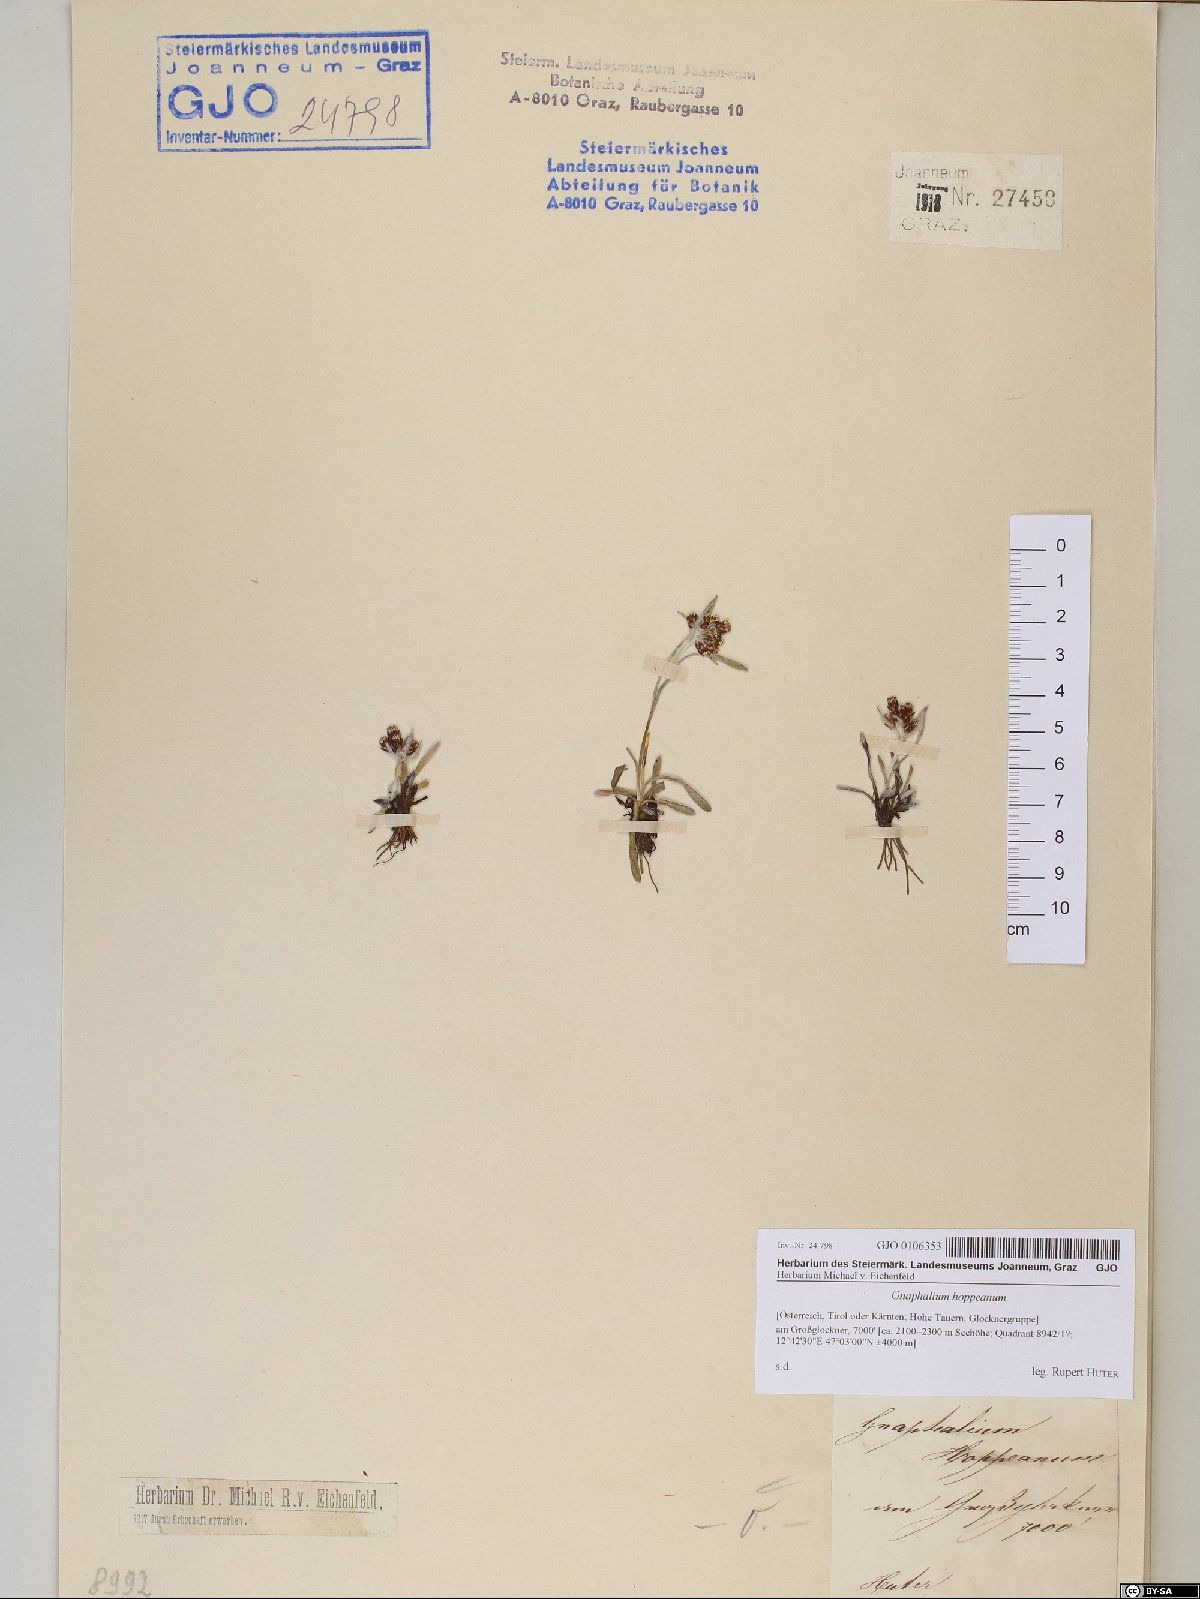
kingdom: Plantae
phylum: Tracheophyta
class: Magnoliopsida
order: Asterales
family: Asteraceae
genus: Omalotheca
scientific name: Omalotheca hoppeana
